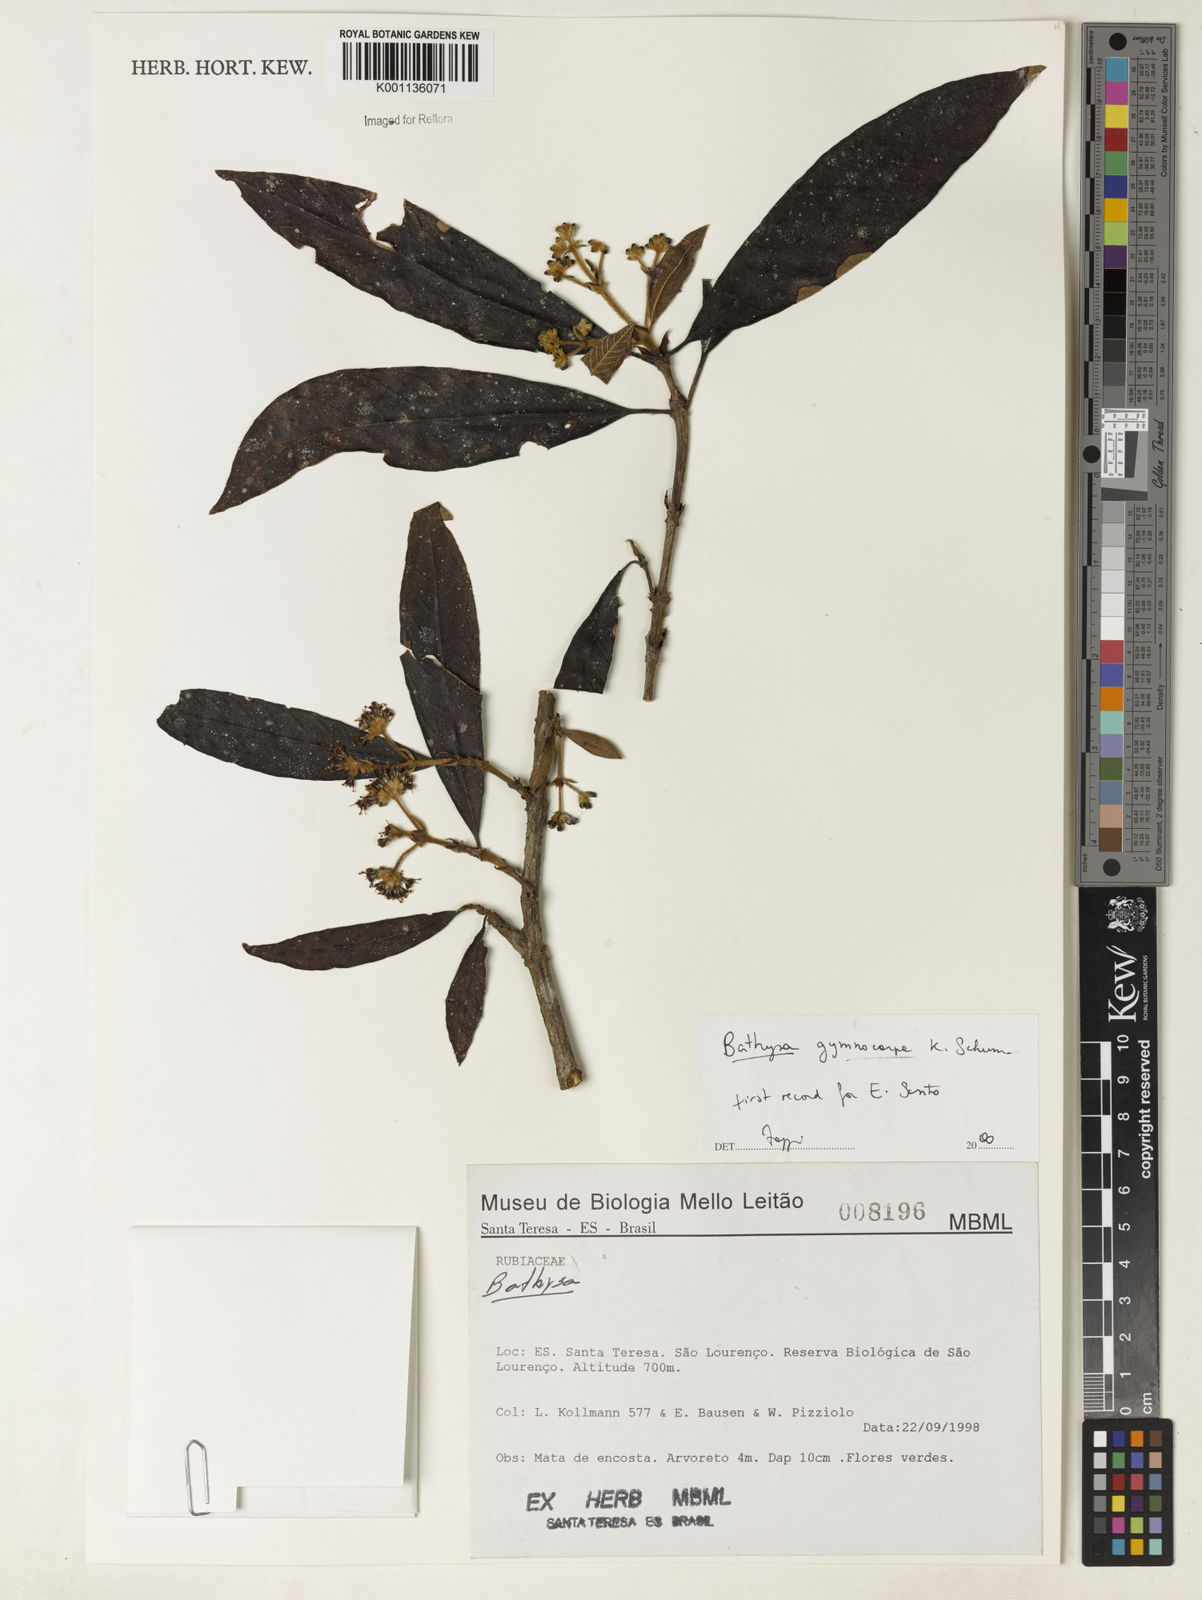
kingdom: Plantae
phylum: Tracheophyta
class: Magnoliopsida
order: Gentianales
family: Rubiaceae
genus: Bathysa
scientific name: Bathysa gymnocarpa
